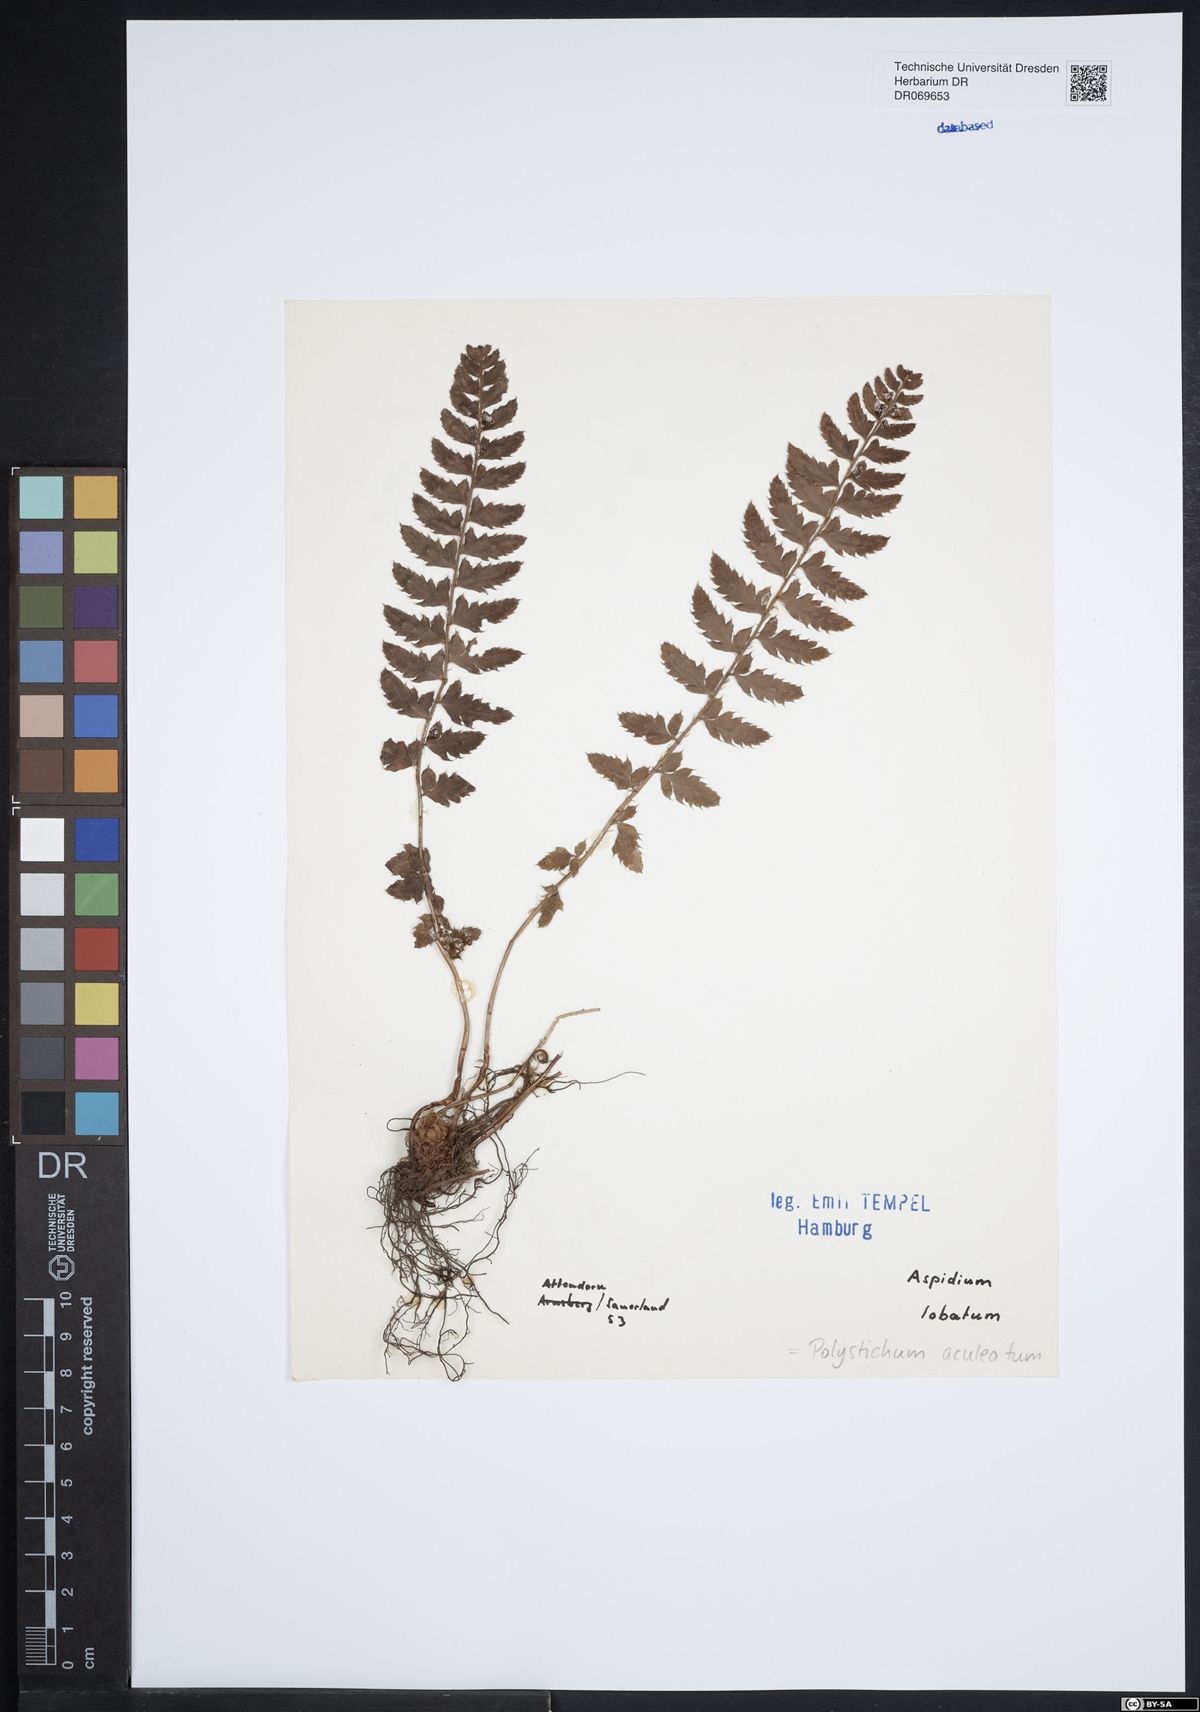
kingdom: Plantae
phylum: Tracheophyta
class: Polypodiopsida
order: Polypodiales
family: Dryopteridaceae
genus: Polystichum
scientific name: Polystichum aculeatum
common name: Hard shield-fern
